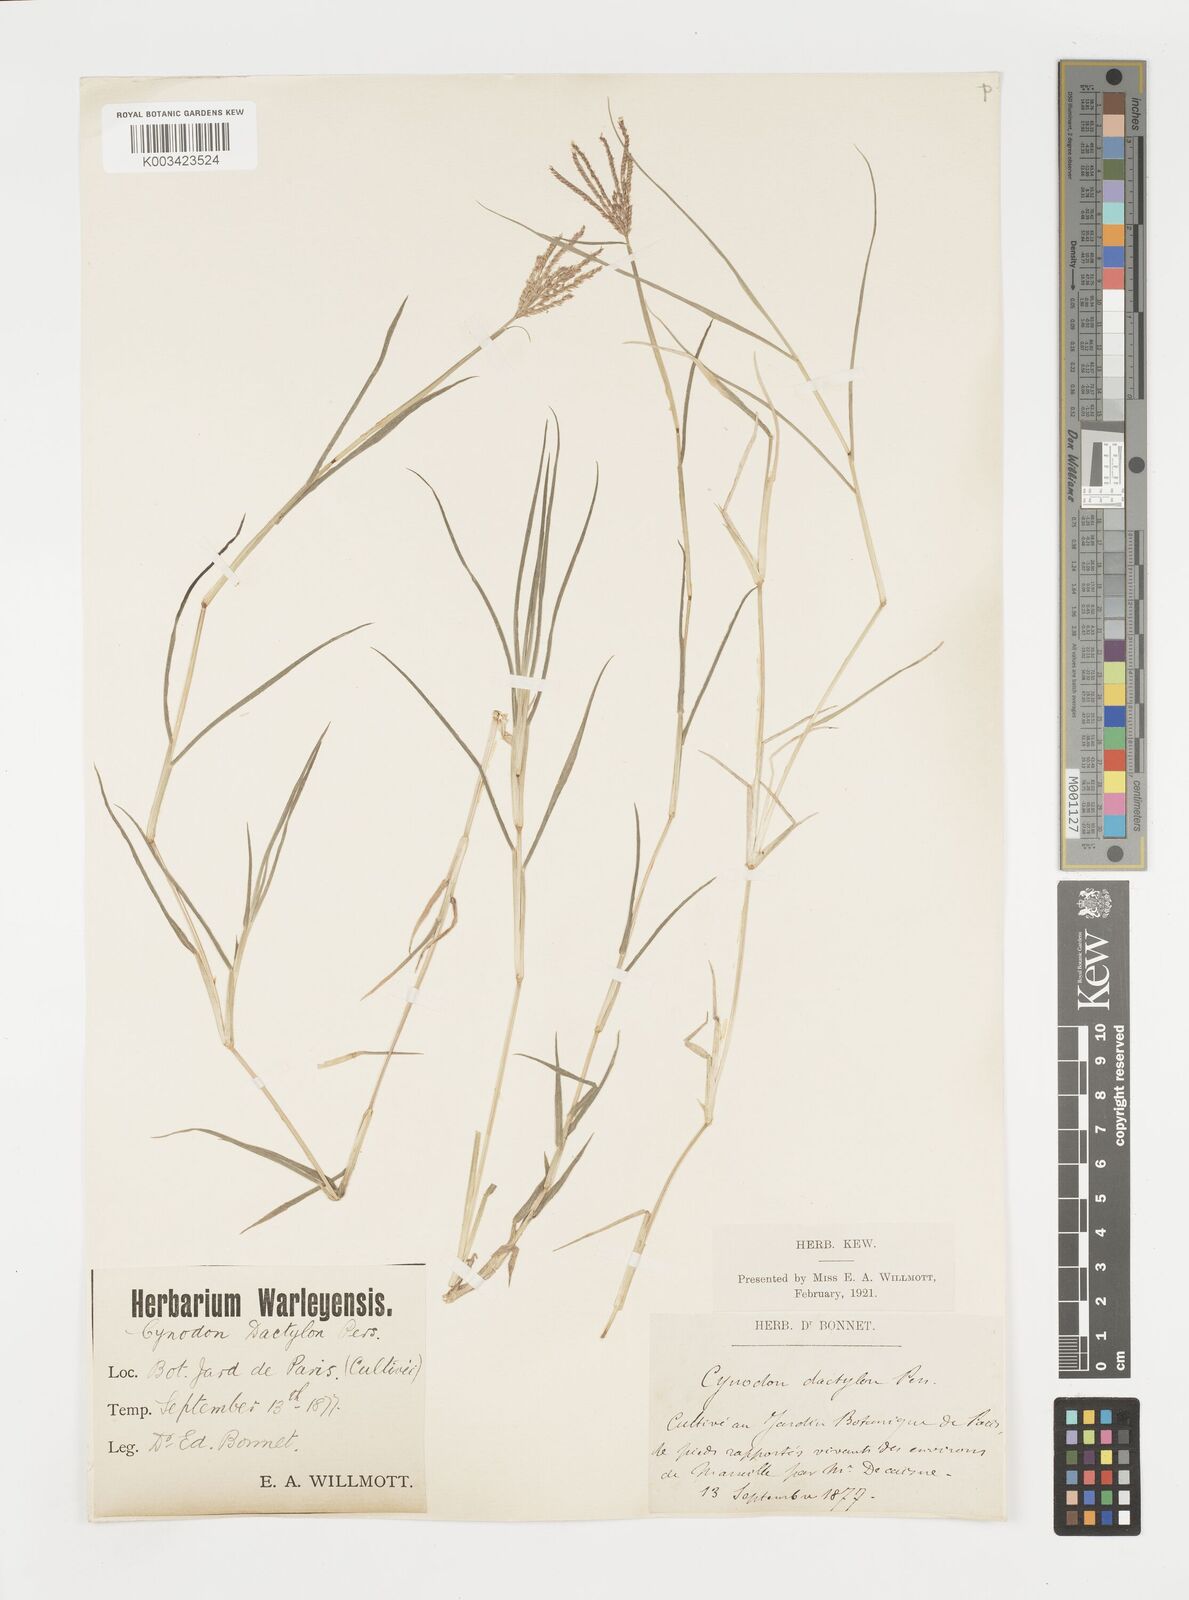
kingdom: Plantae
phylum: Tracheophyta
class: Liliopsida
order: Poales
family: Poaceae
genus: Cynodon
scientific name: Cynodon dactylon
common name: Bermuda grass
